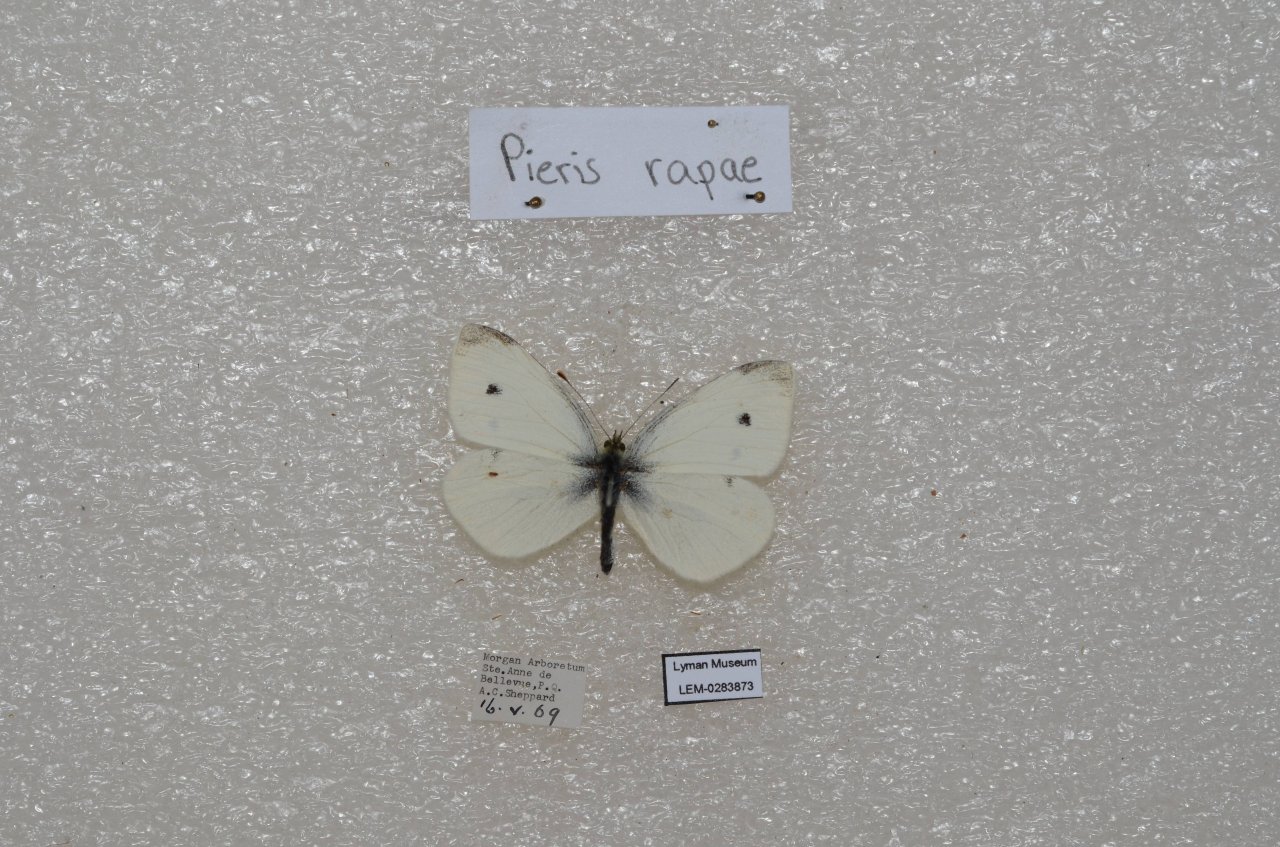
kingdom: Animalia
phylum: Arthropoda
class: Insecta
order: Lepidoptera
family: Pieridae
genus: Pieris
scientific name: Pieris rapae
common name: Cabbage White
